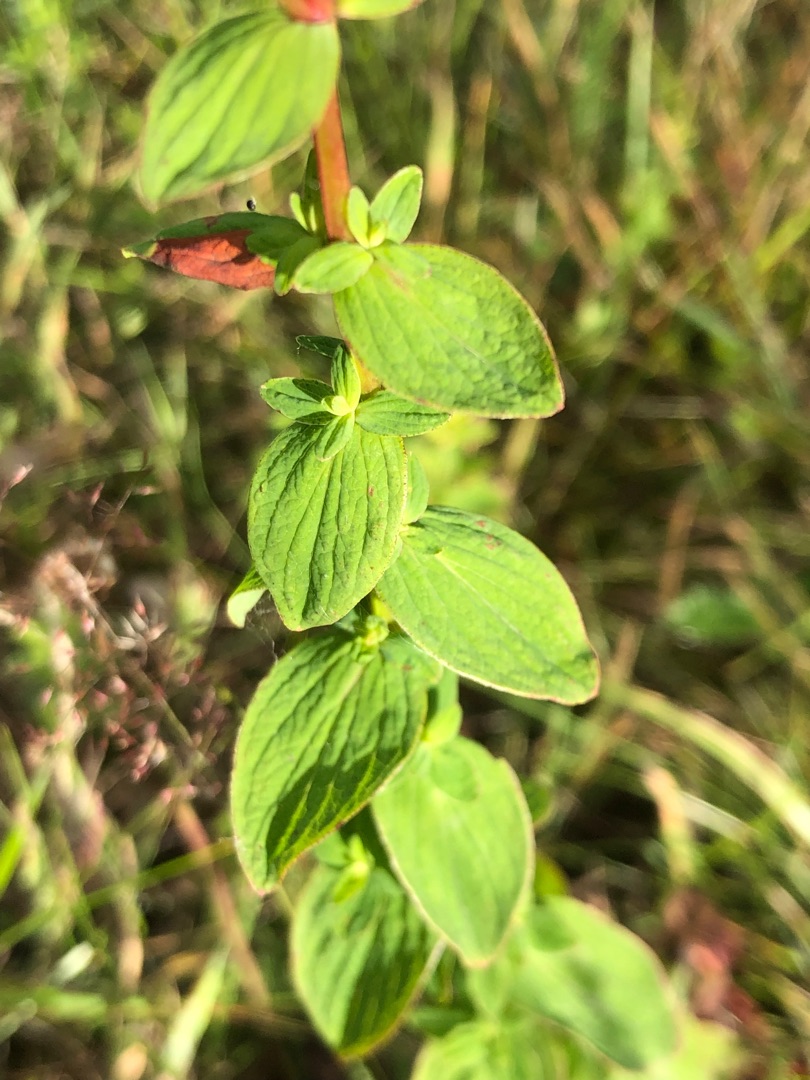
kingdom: Plantae
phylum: Tracheophyta
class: Magnoliopsida
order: Malpighiales
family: Hypericaceae
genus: Hypericum
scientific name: Hypericum maculatum
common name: Kantet perikon
